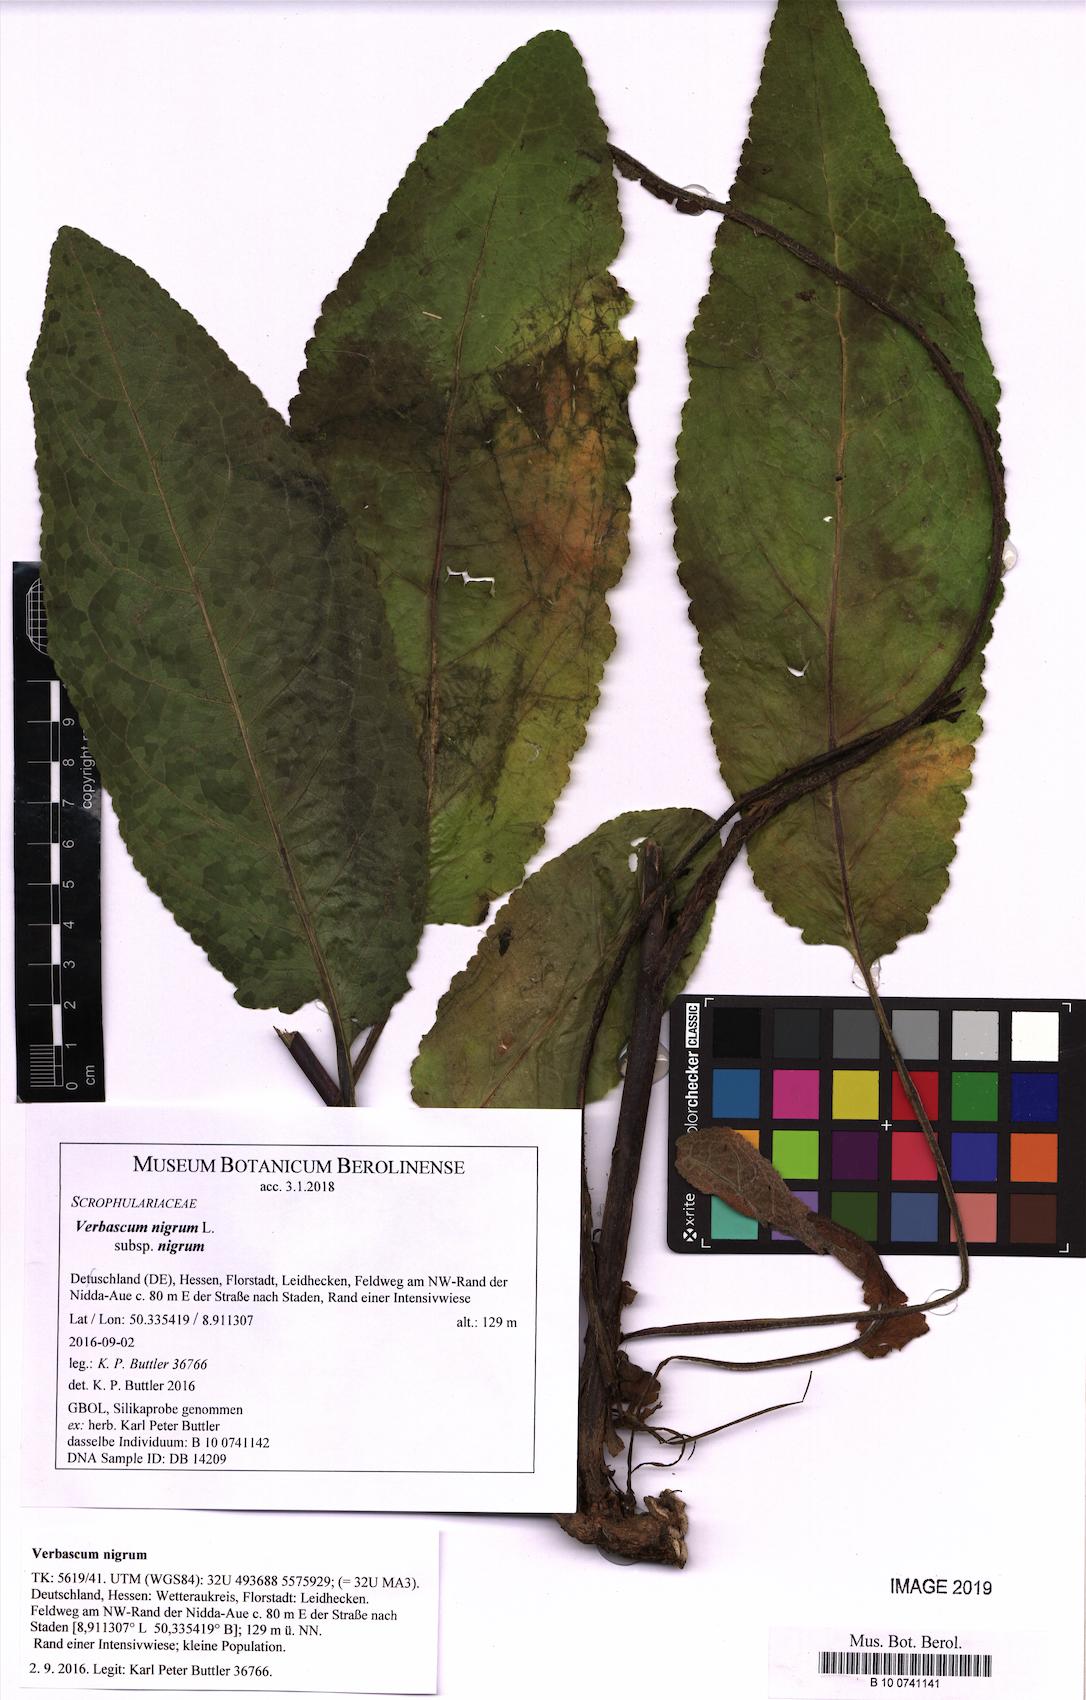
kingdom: Plantae
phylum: Tracheophyta
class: Magnoliopsida
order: Lamiales
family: Scrophulariaceae
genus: Verbascum
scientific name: Verbascum nigrum
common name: Dark mullein
